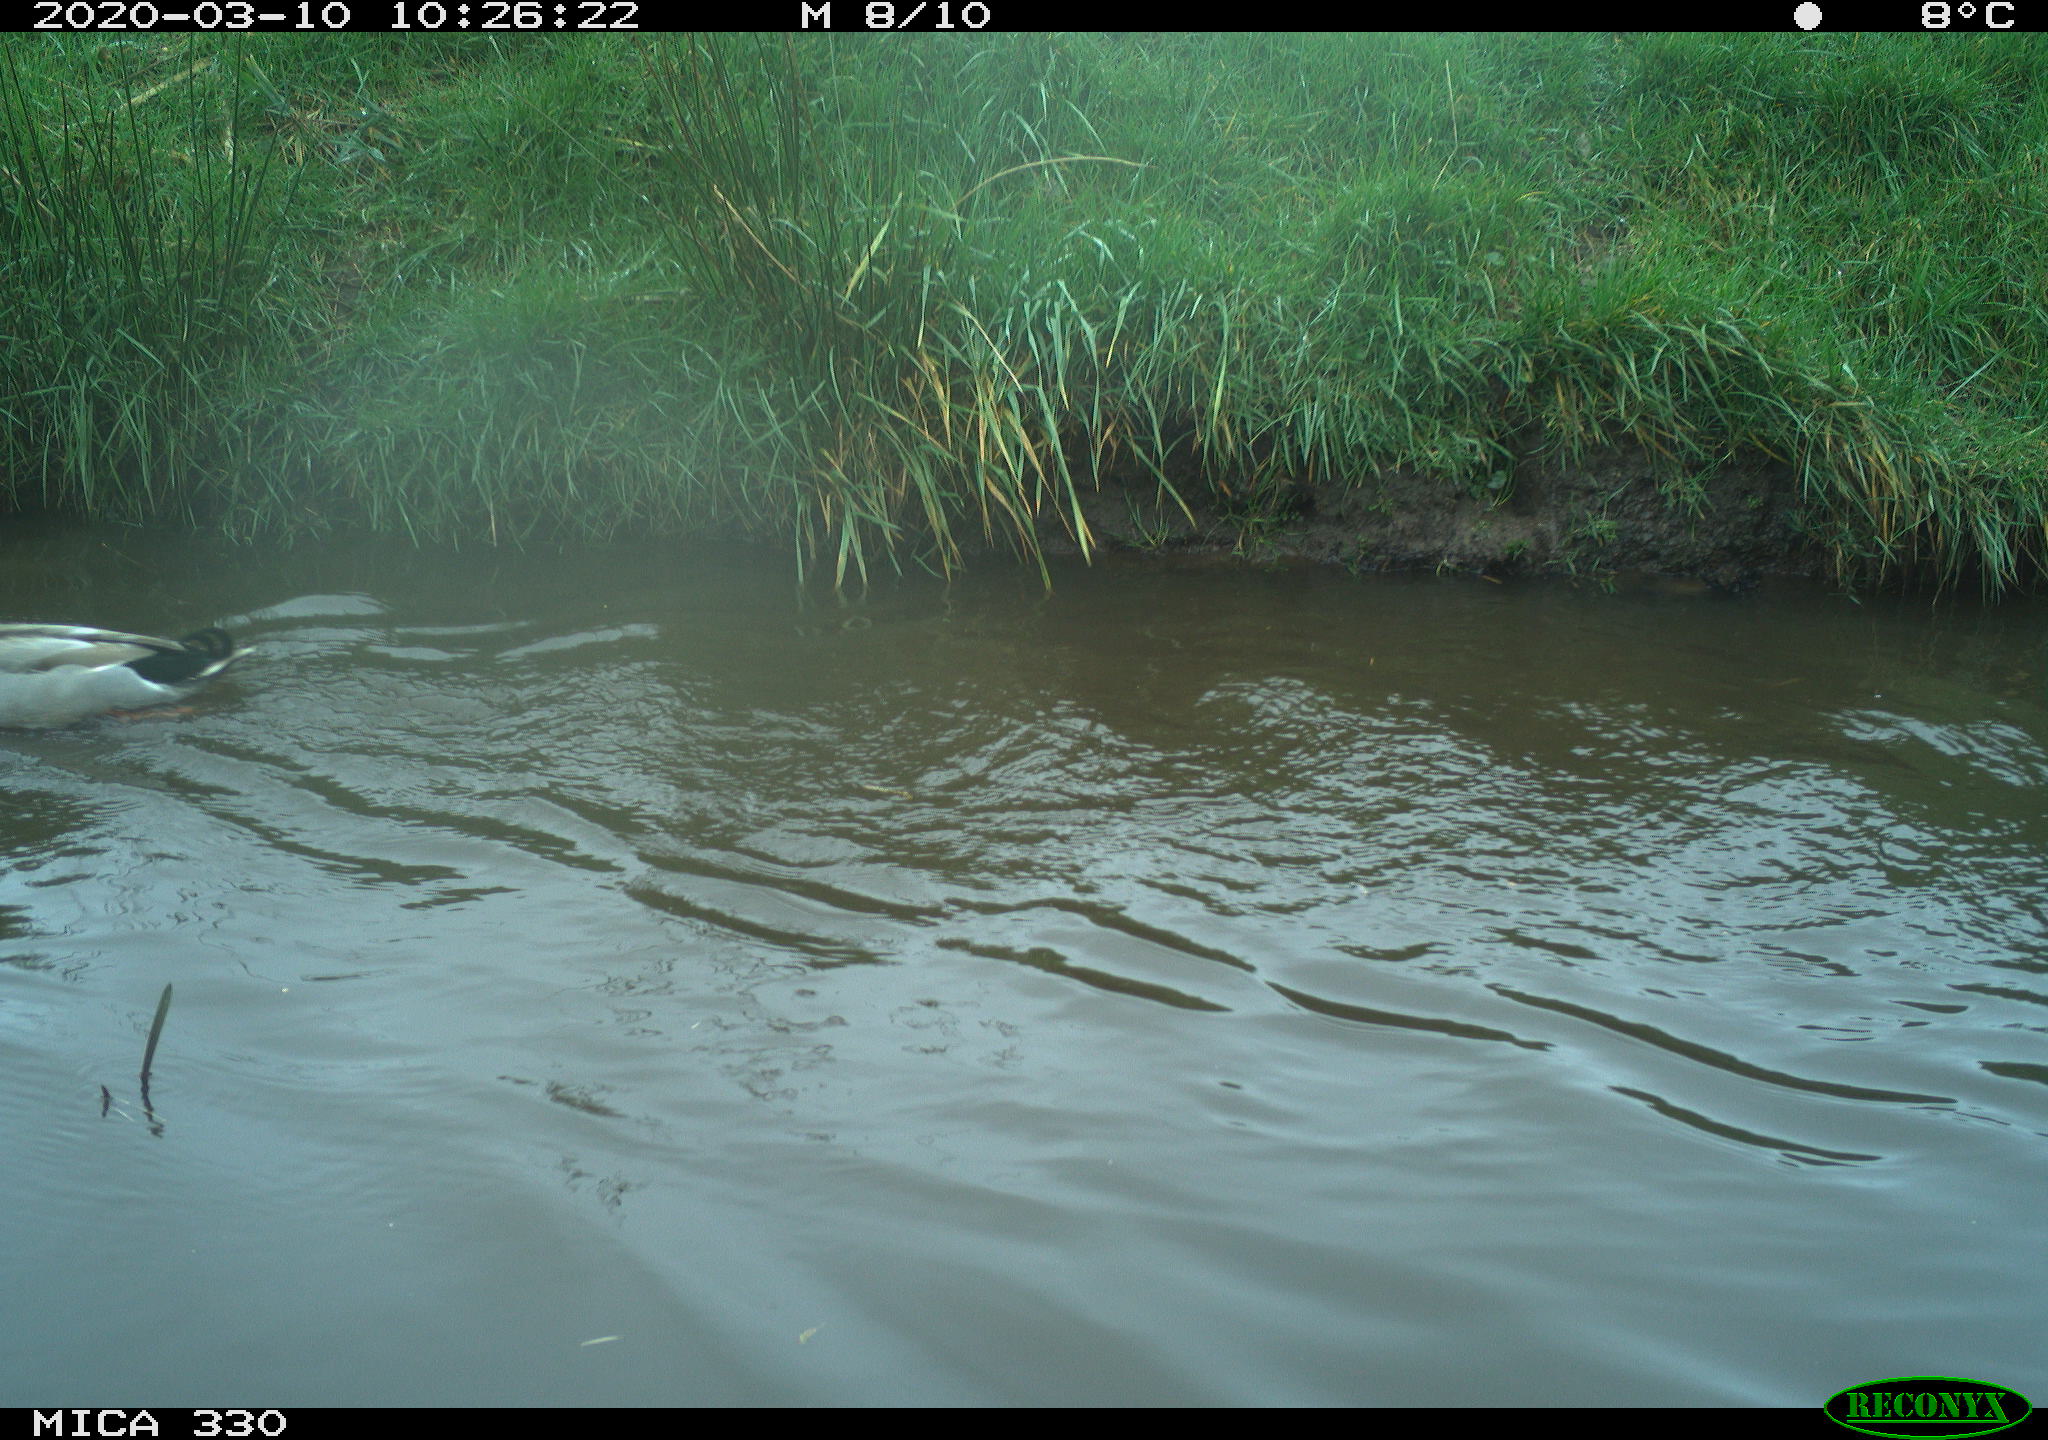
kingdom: Animalia
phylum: Chordata
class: Aves
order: Anseriformes
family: Anatidae
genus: Anas
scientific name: Anas platyrhynchos
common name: Mallard
